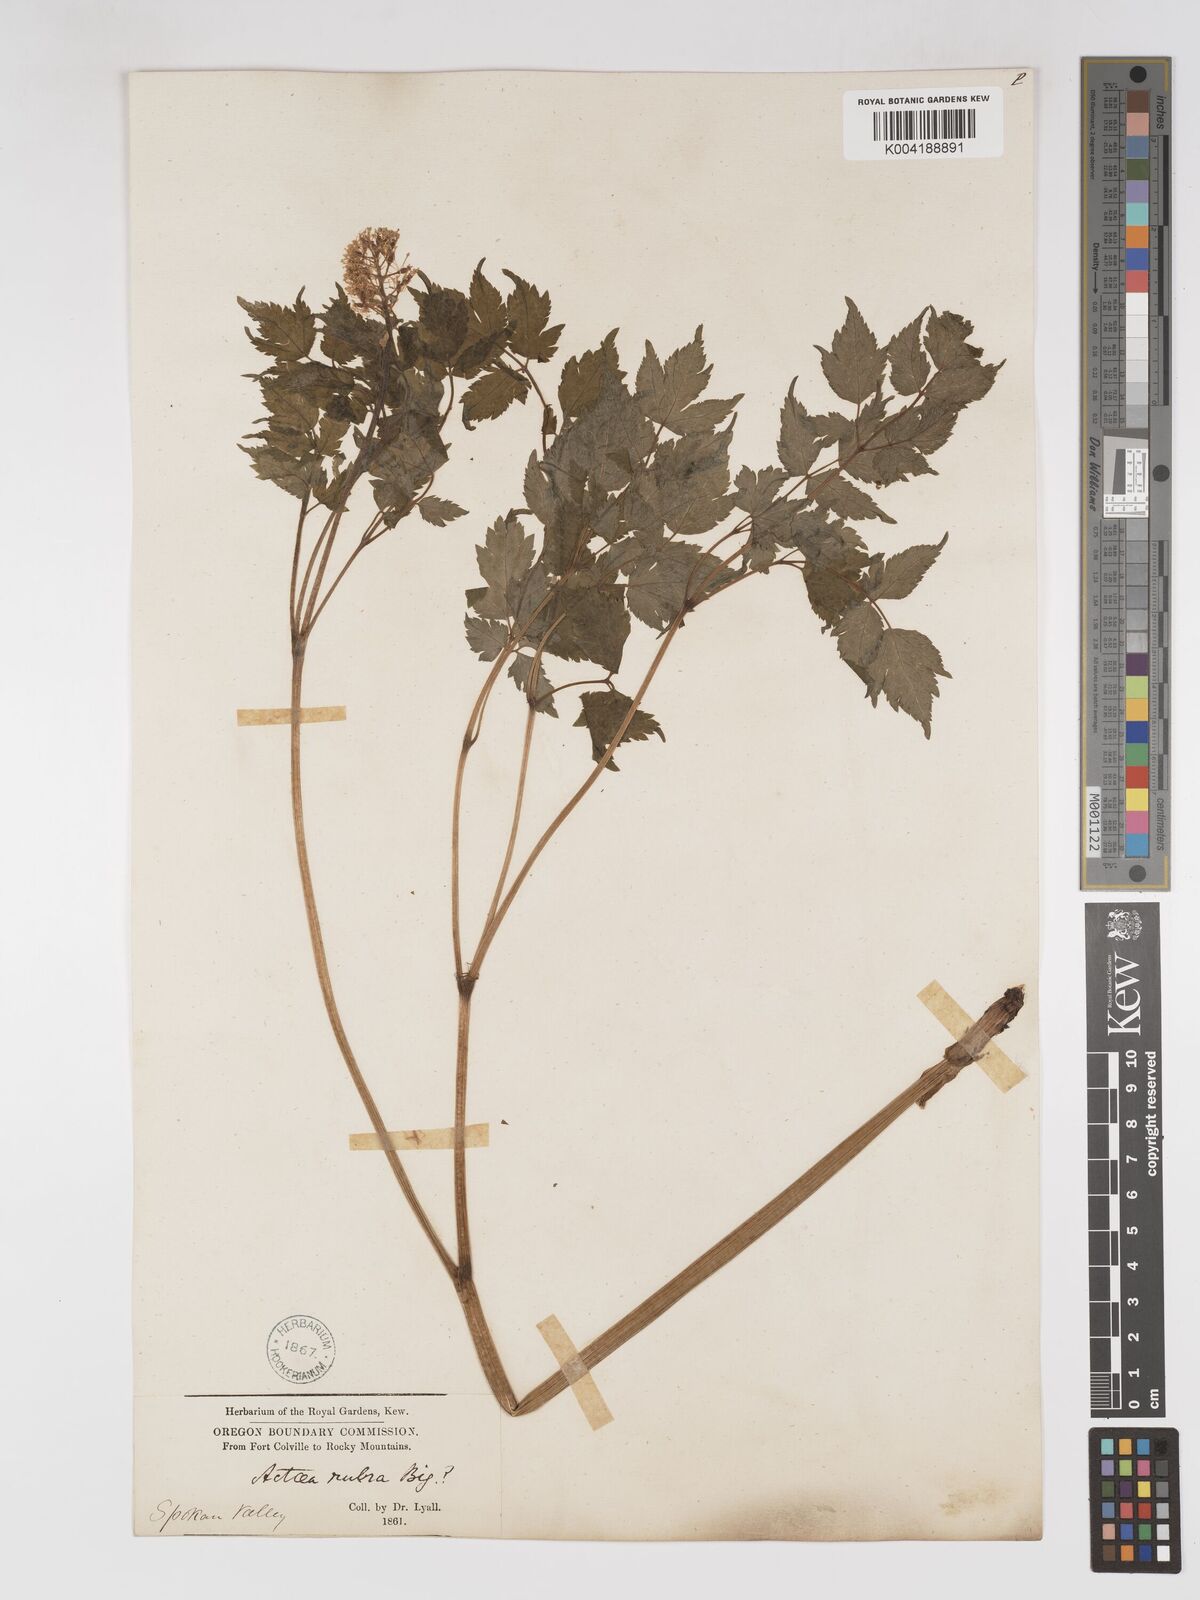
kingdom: Plantae
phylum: Tracheophyta
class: Magnoliopsida
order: Ranunculales
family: Ranunculaceae
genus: Actaea
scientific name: Actaea spicata
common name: Baneberry
